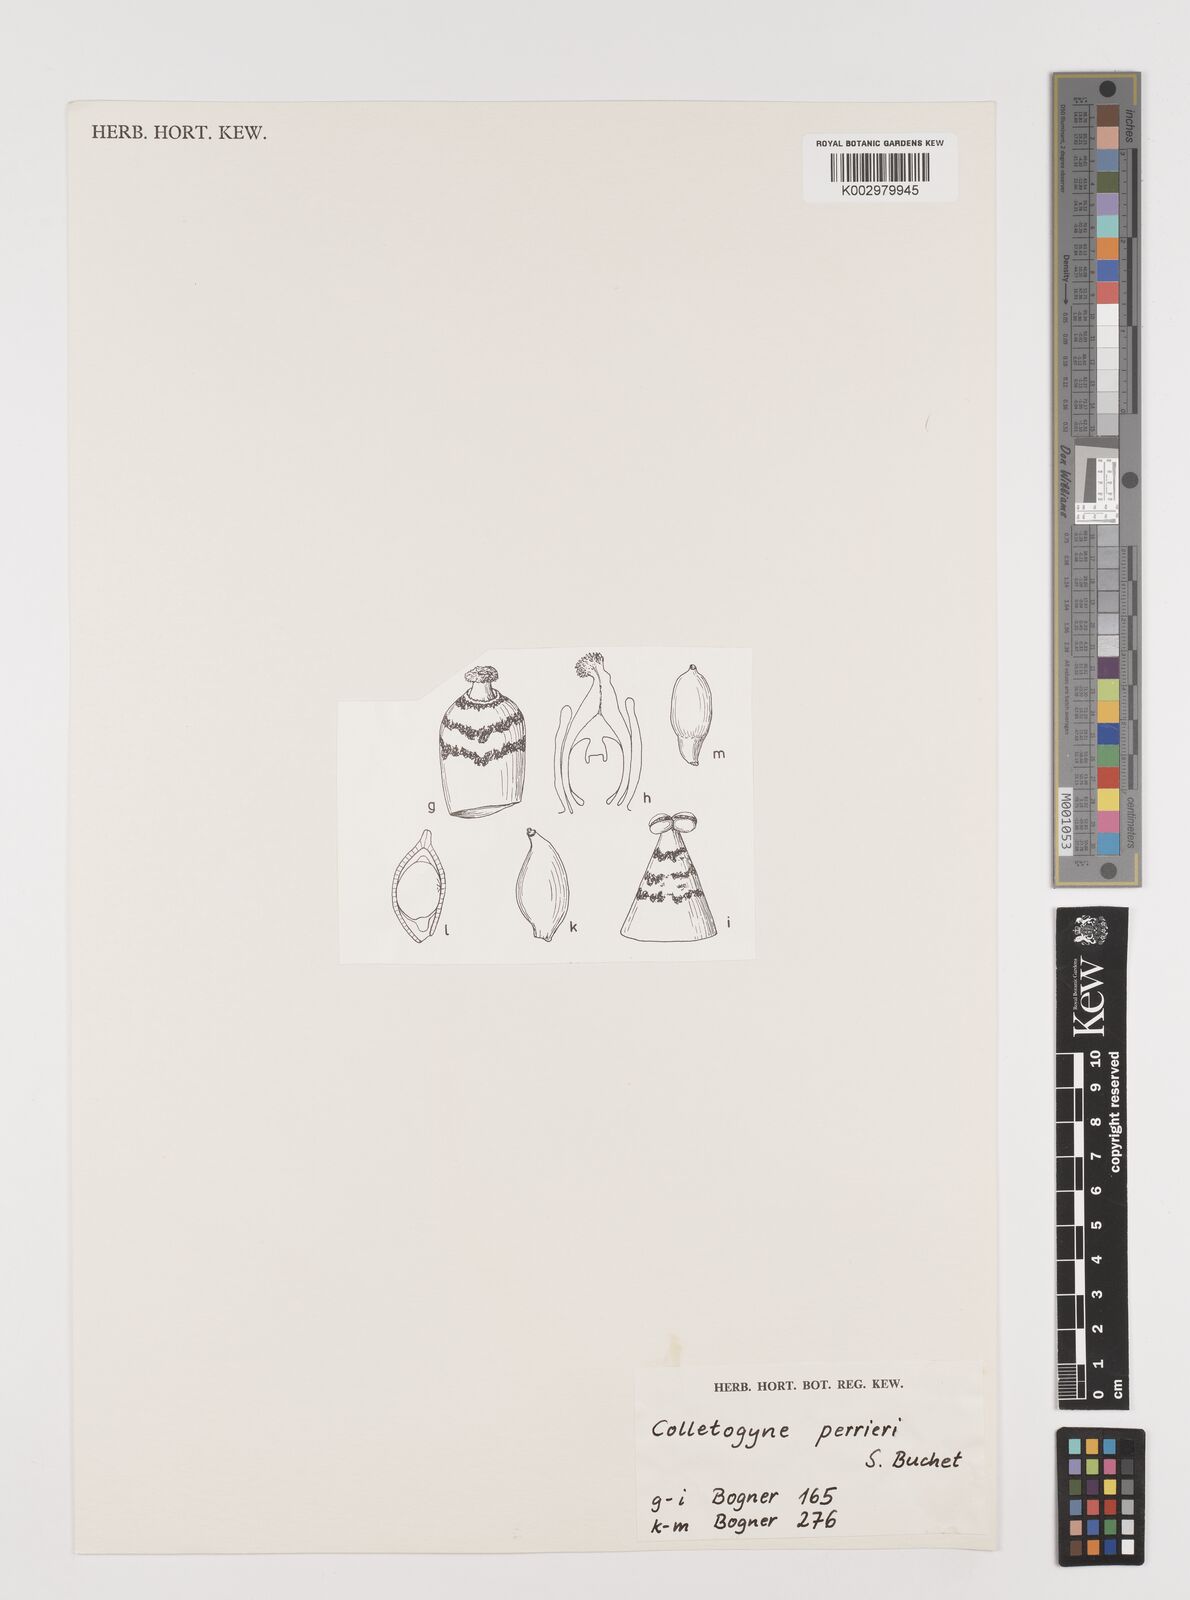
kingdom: Plantae
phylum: Tracheophyta
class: Liliopsida
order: Alismatales
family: Araceae
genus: Colletogyne
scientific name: Colletogyne perrieri
